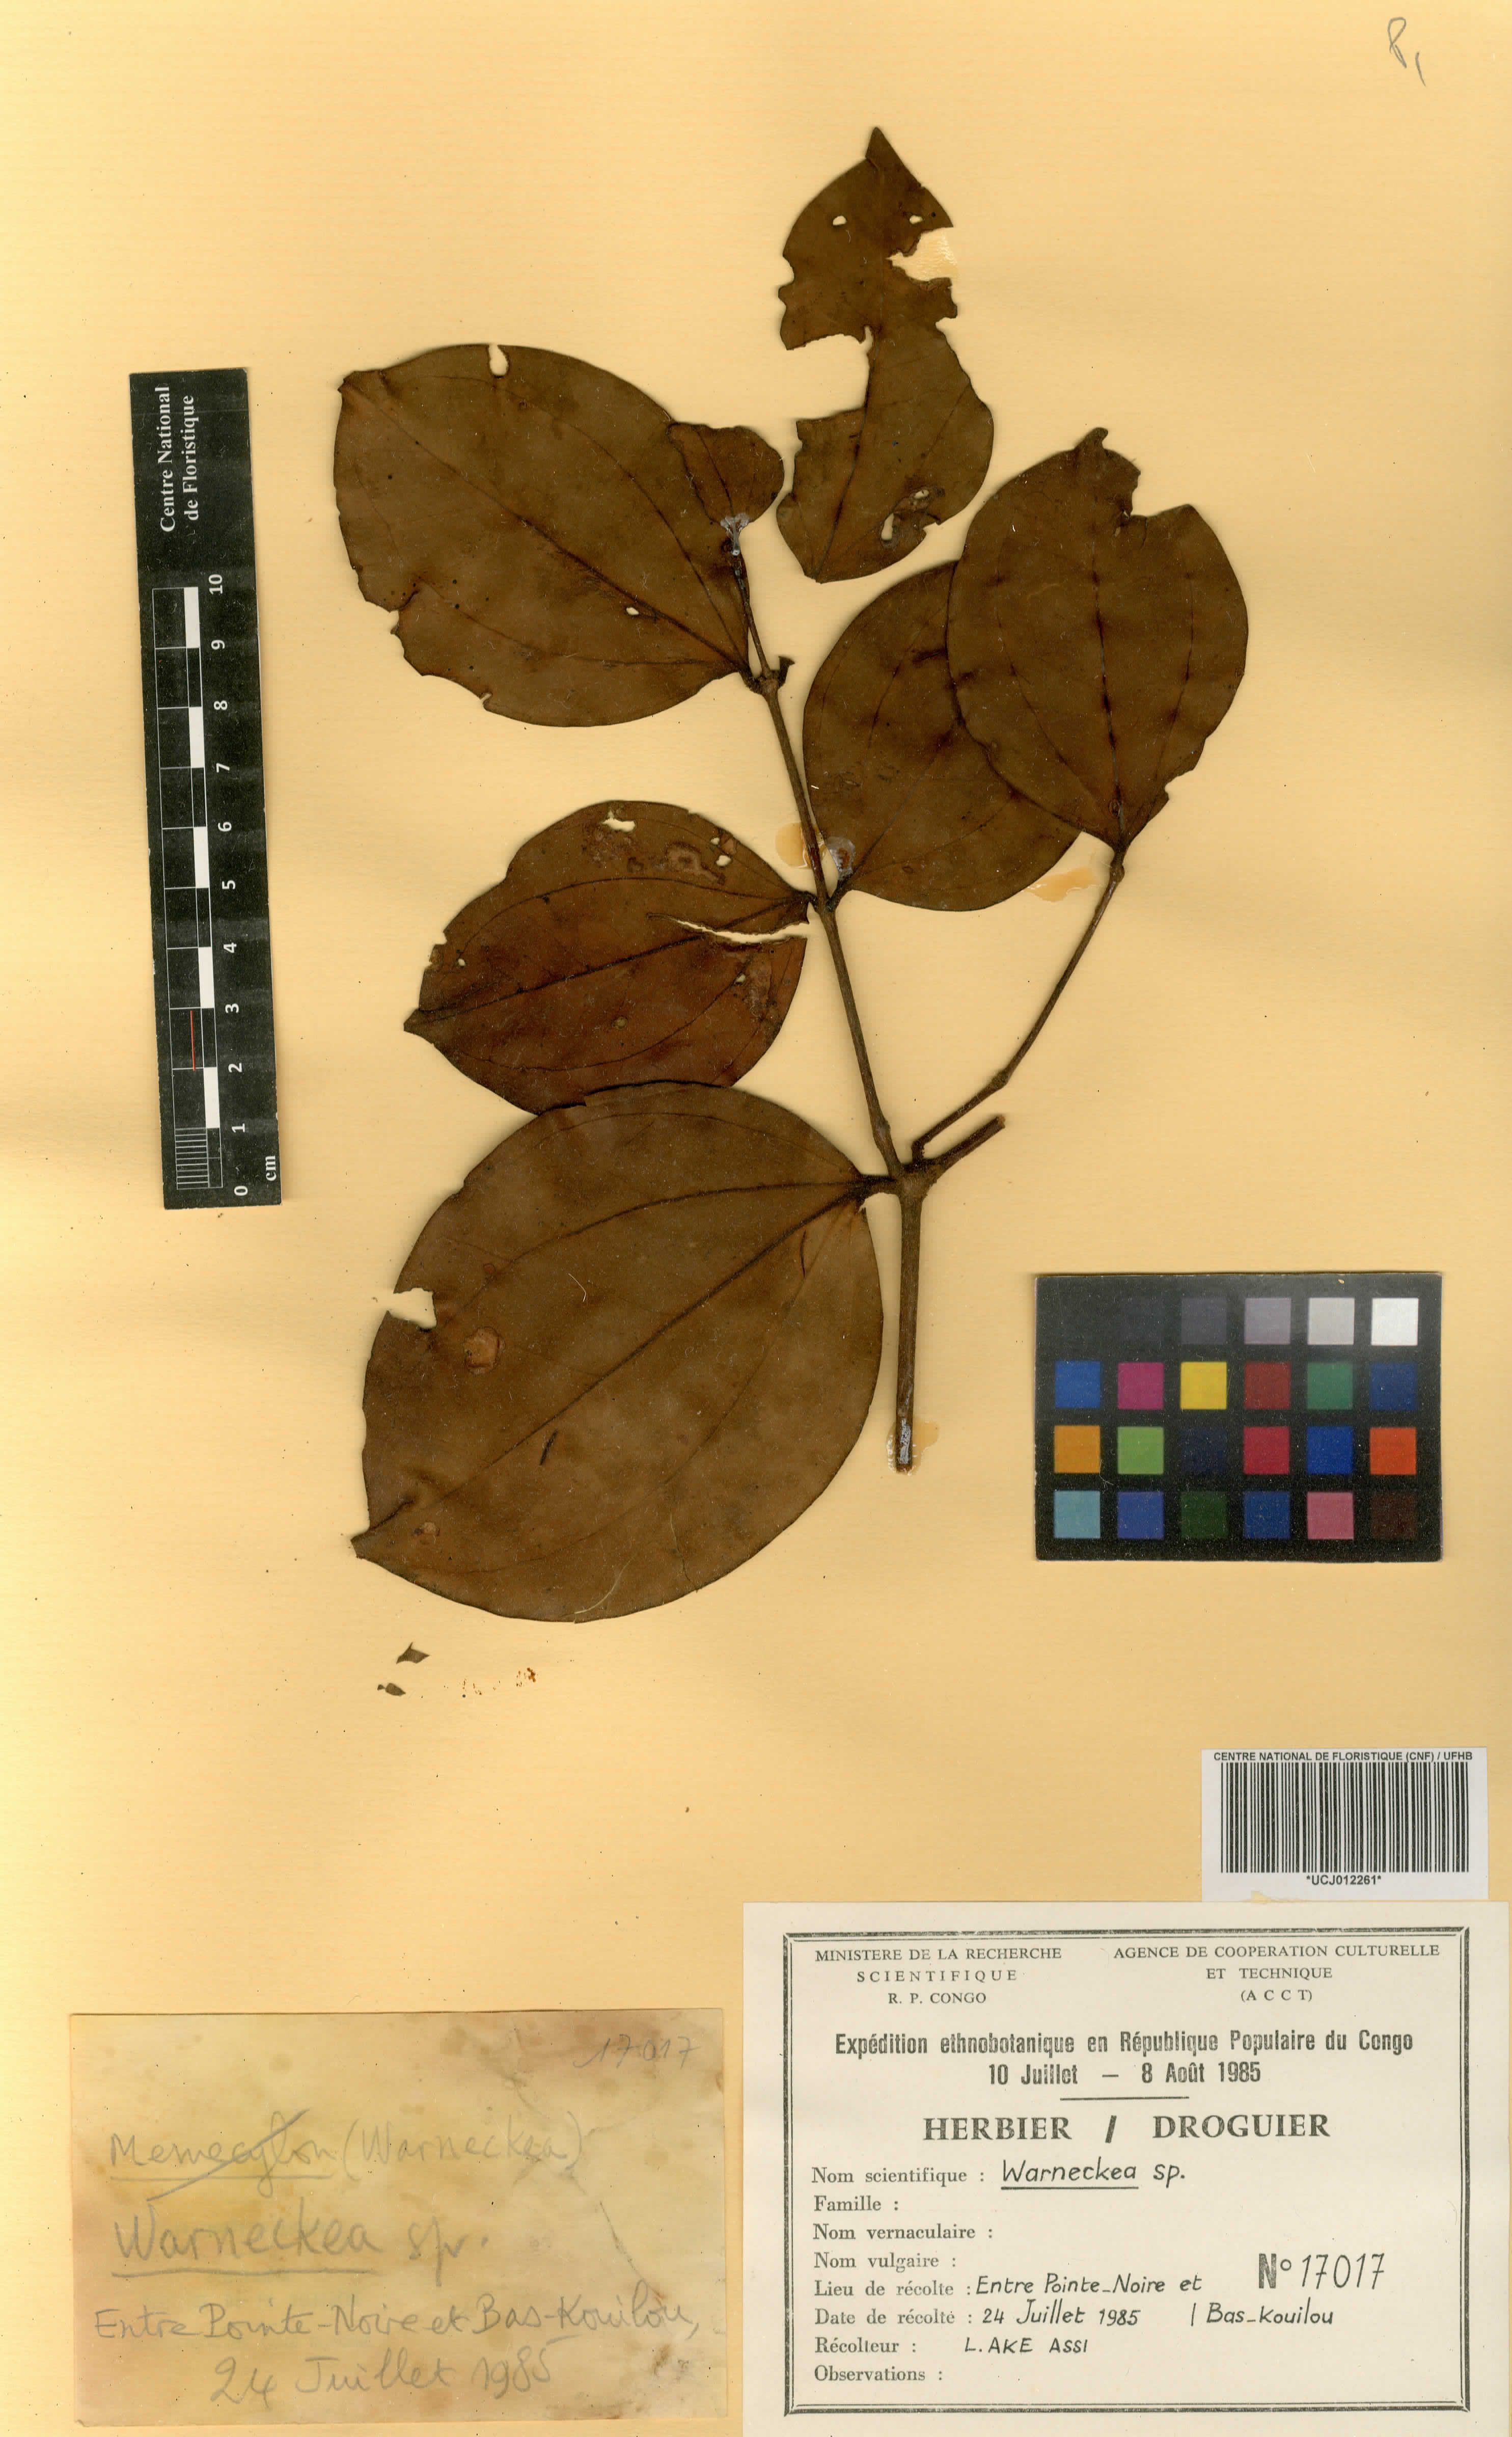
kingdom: Plantae
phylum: Tracheophyta
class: Magnoliopsida
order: Myrtales
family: Melastomataceae
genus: Warneckea
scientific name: Warneckea
